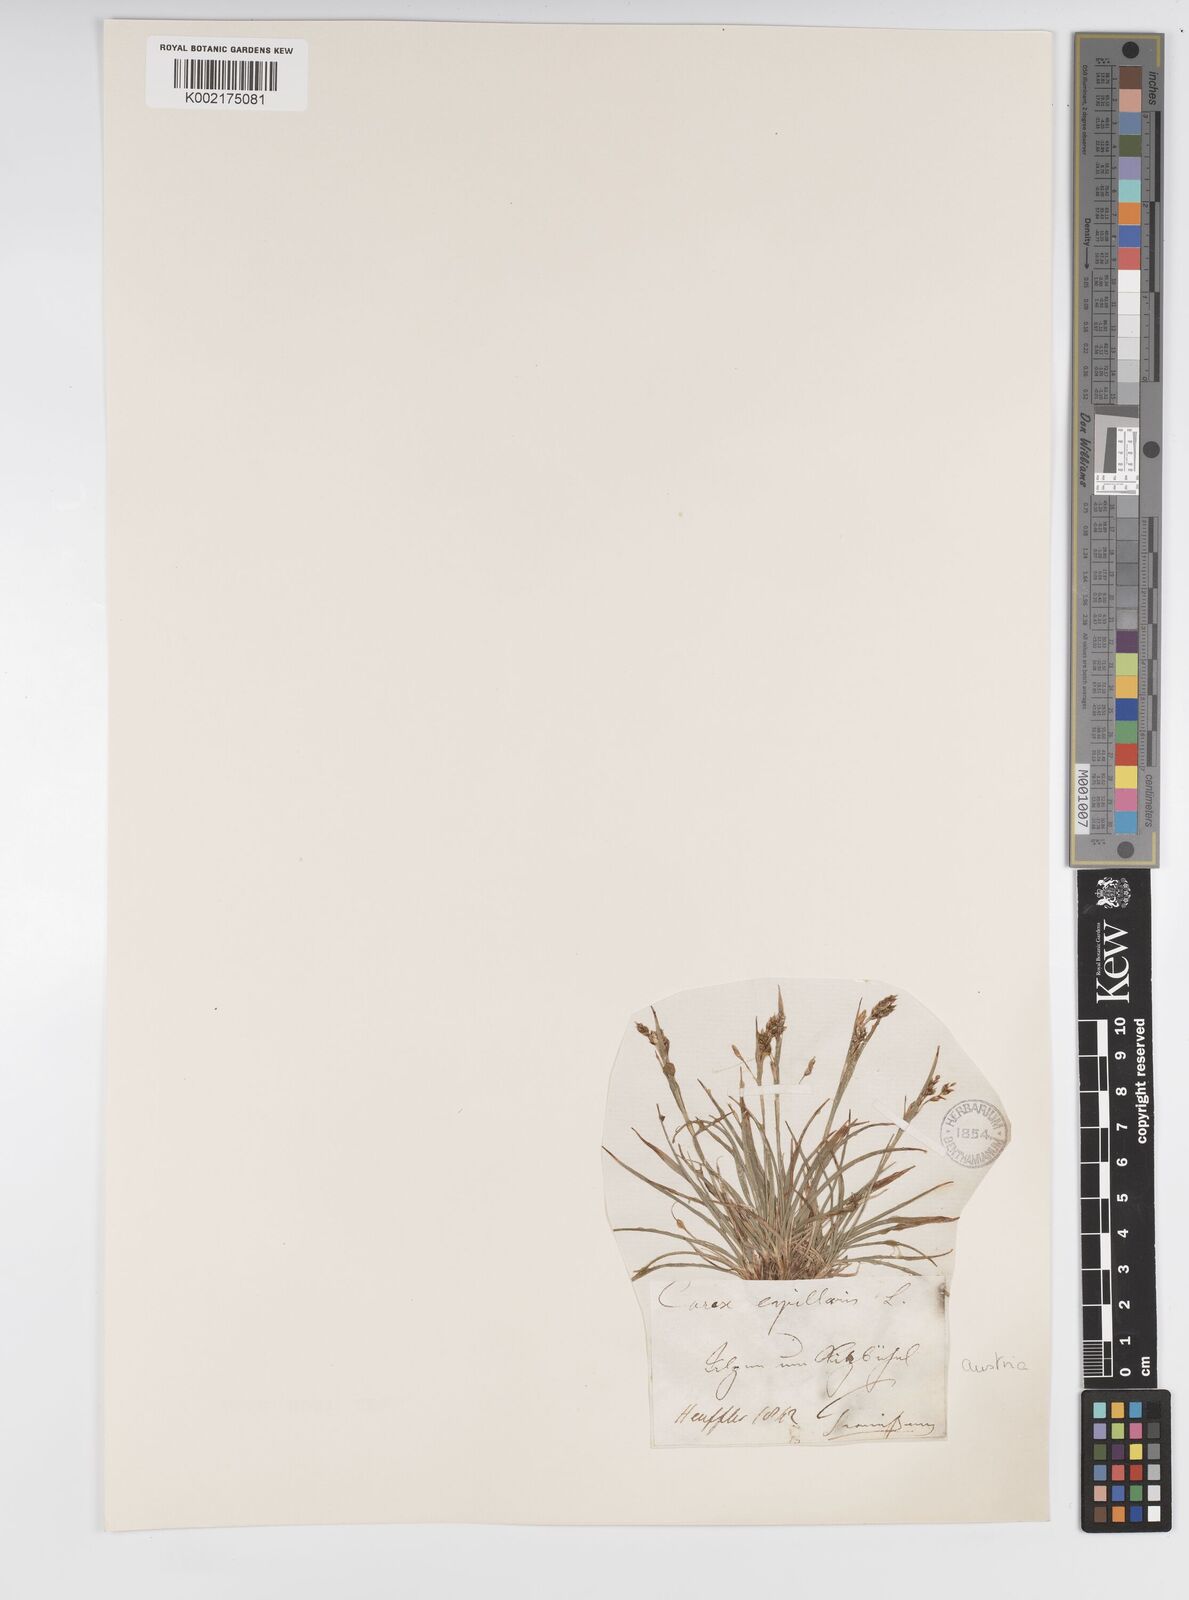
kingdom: Plantae
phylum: Tracheophyta
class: Liliopsida
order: Poales
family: Cyperaceae
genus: Carex
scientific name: Carex capillaris
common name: Hair sedge
